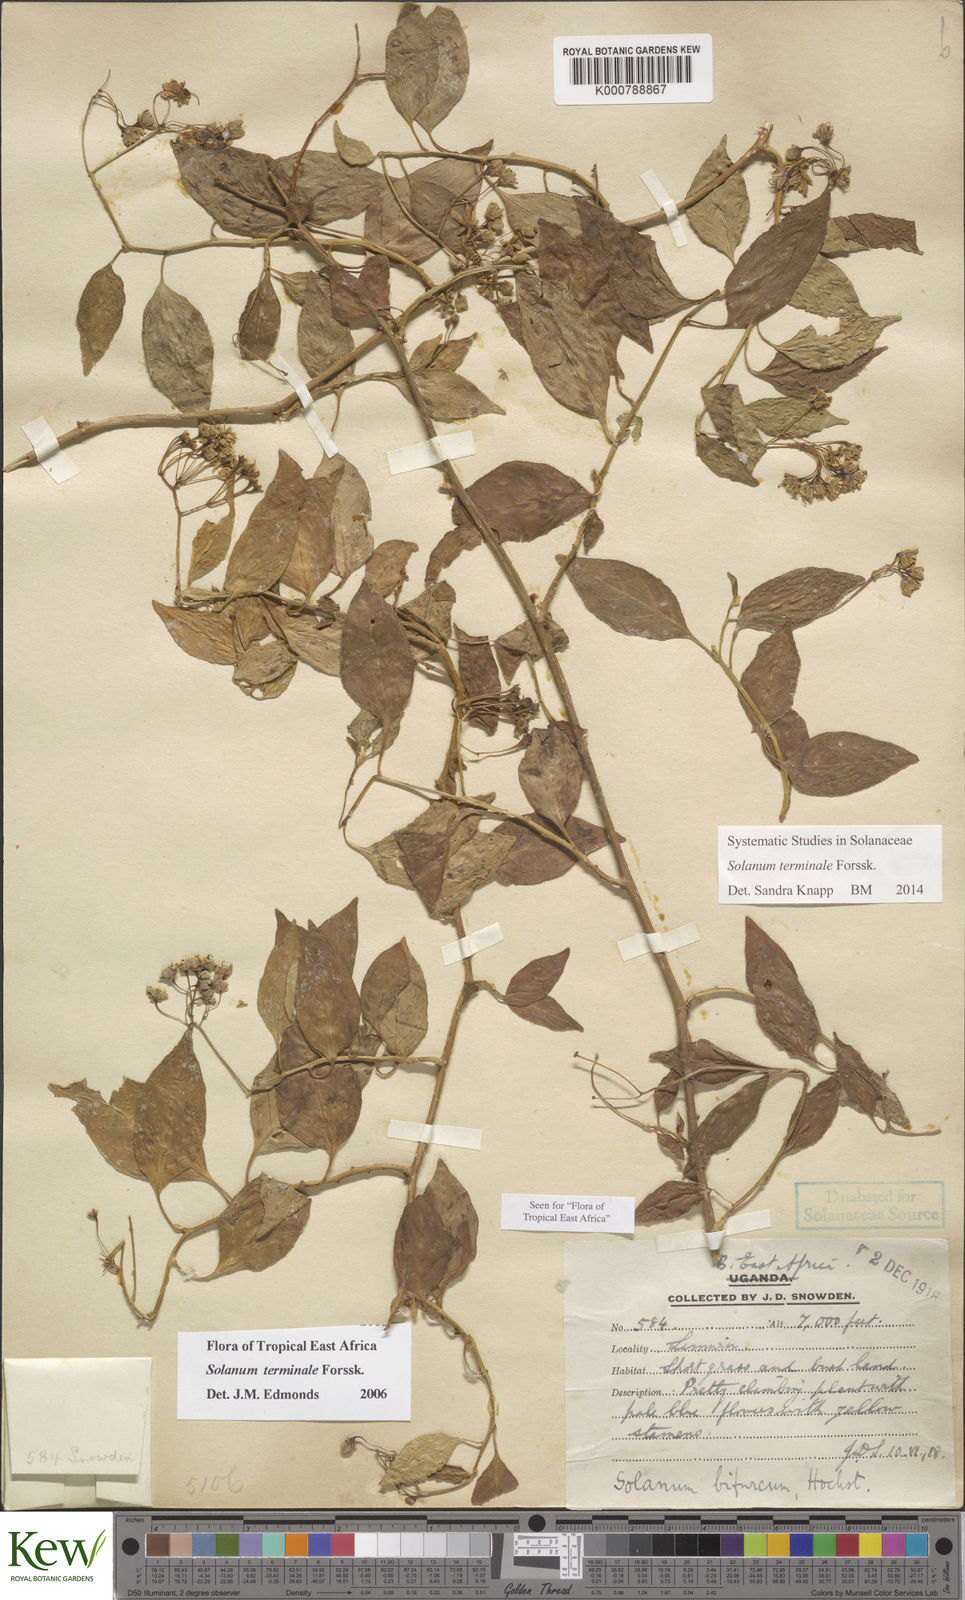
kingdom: Plantae
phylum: Tracheophyta
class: Magnoliopsida
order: Solanales
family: Solanaceae
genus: Solanum
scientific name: Solanum terminale
